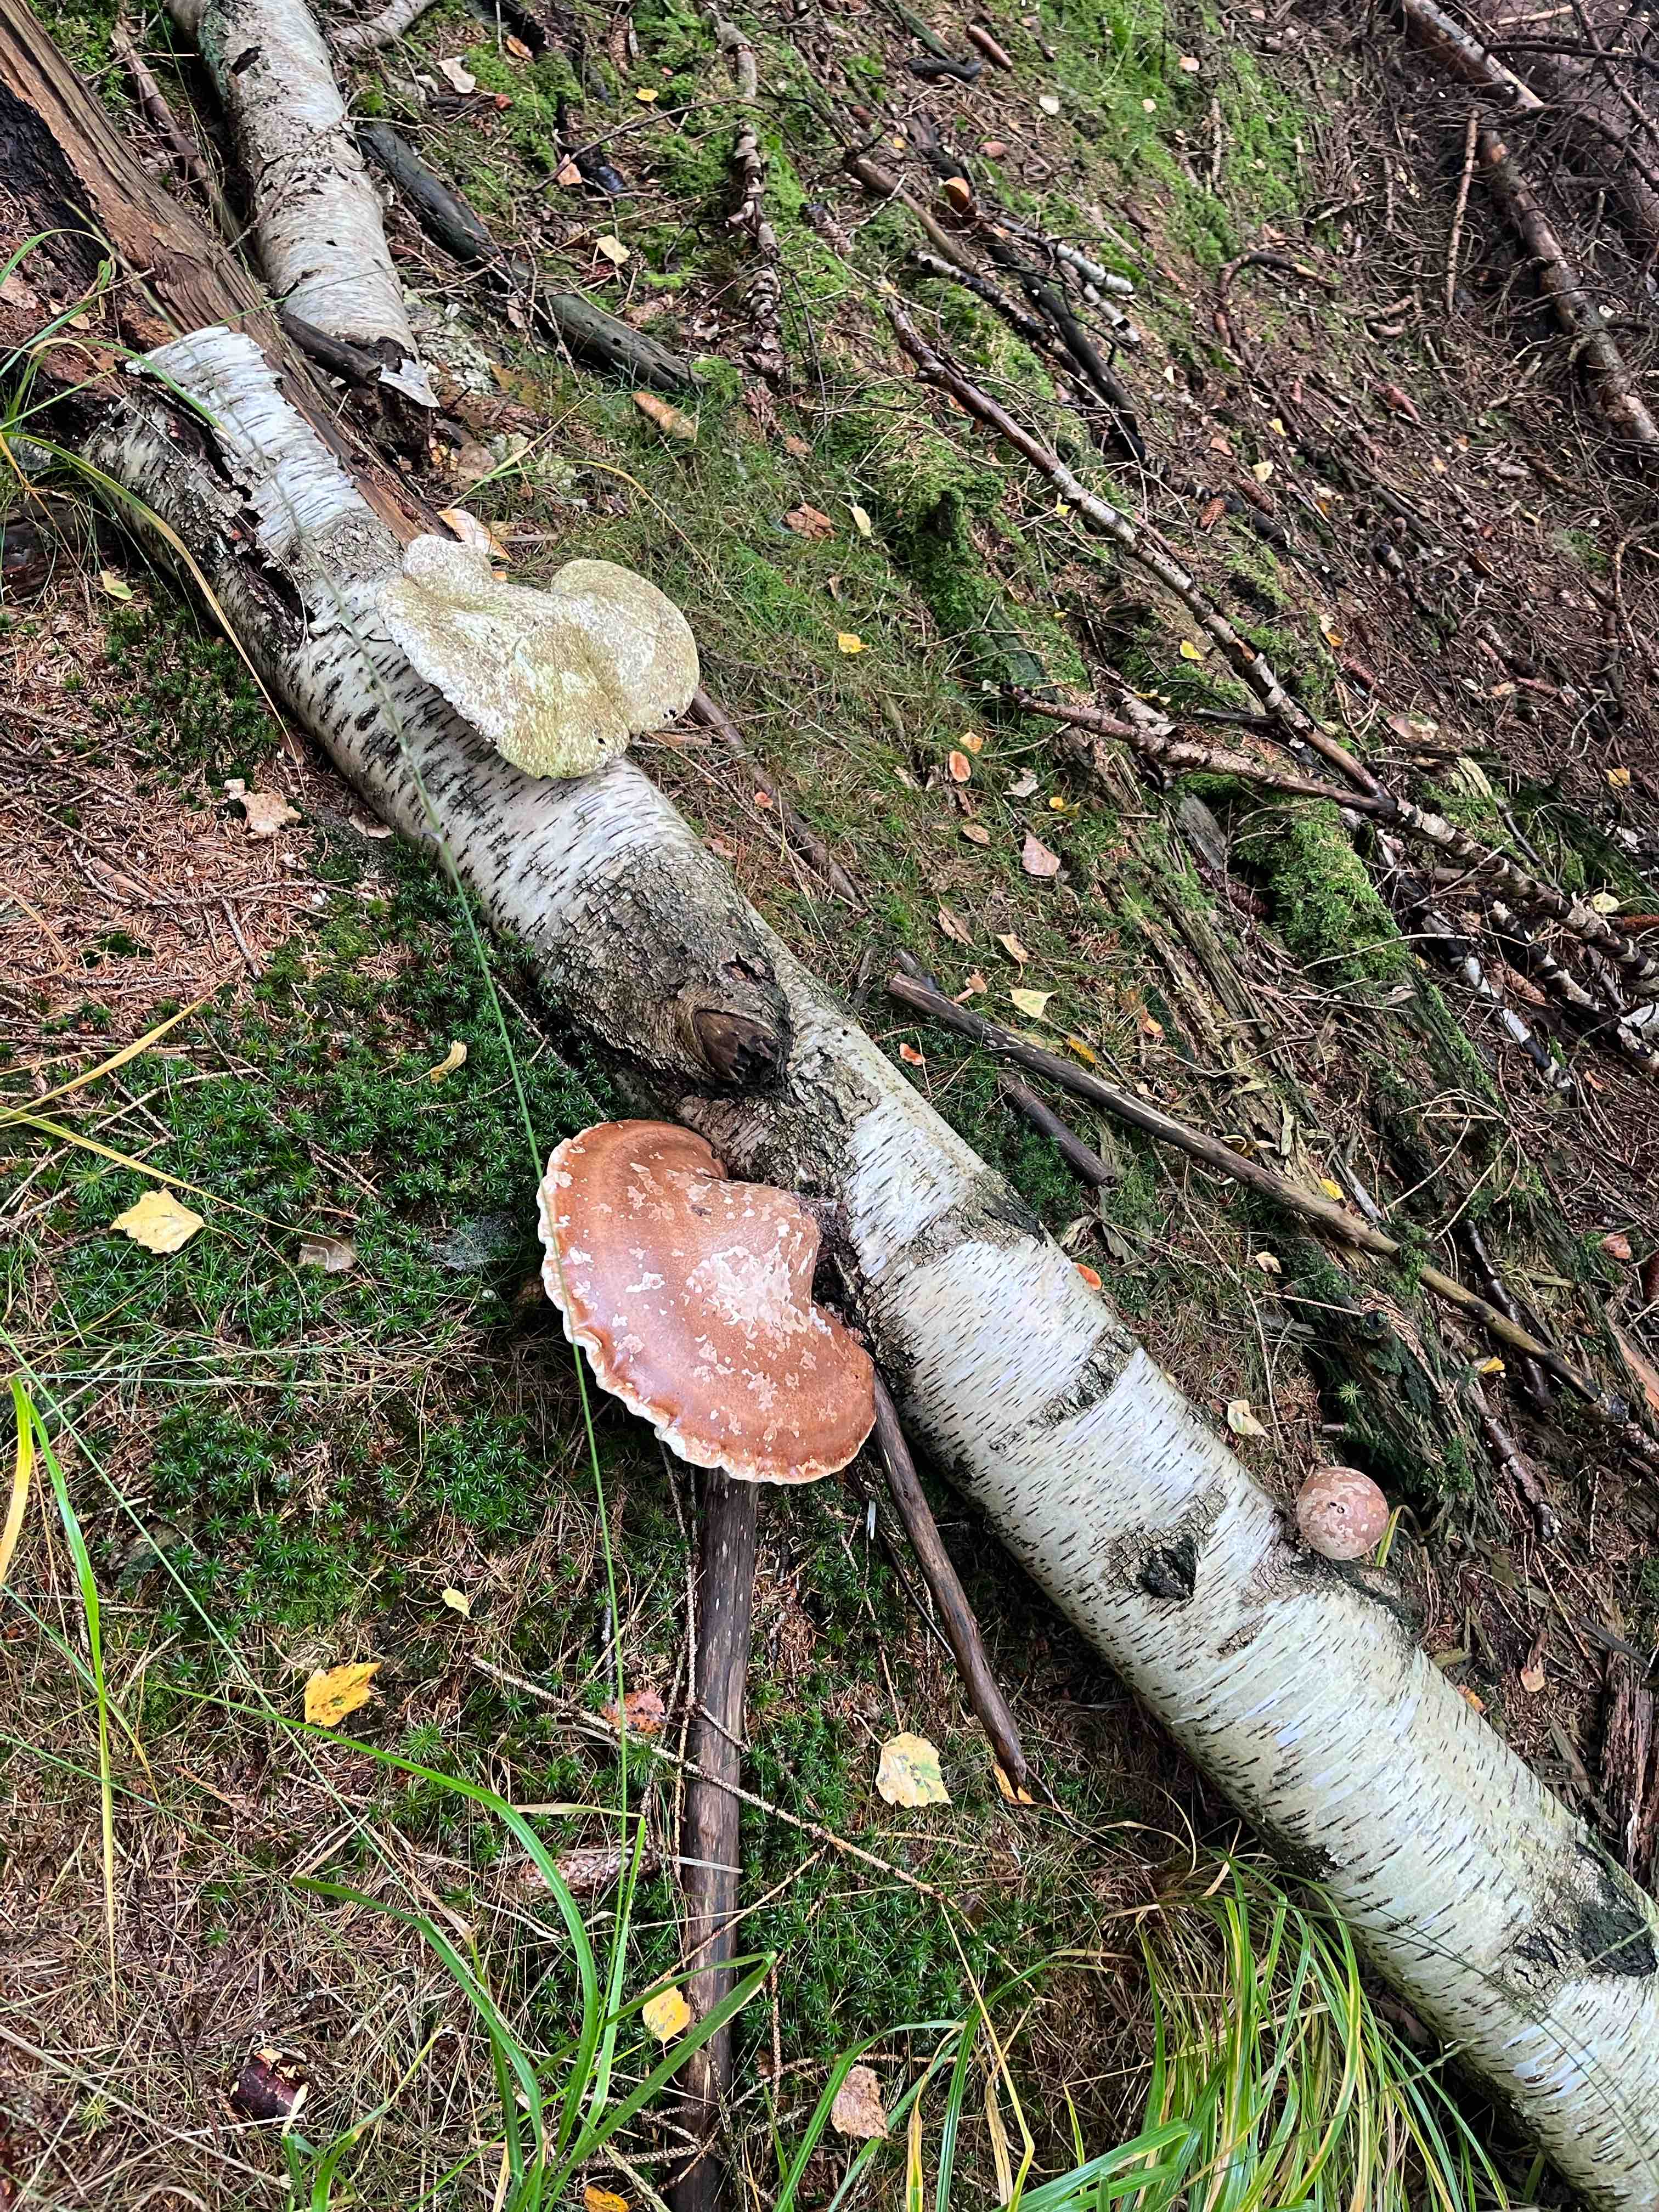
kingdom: Fungi
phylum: Basidiomycota
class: Agaricomycetes
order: Polyporales
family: Fomitopsidaceae
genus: Fomitopsis
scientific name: Fomitopsis betulina
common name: birkeporesvamp
